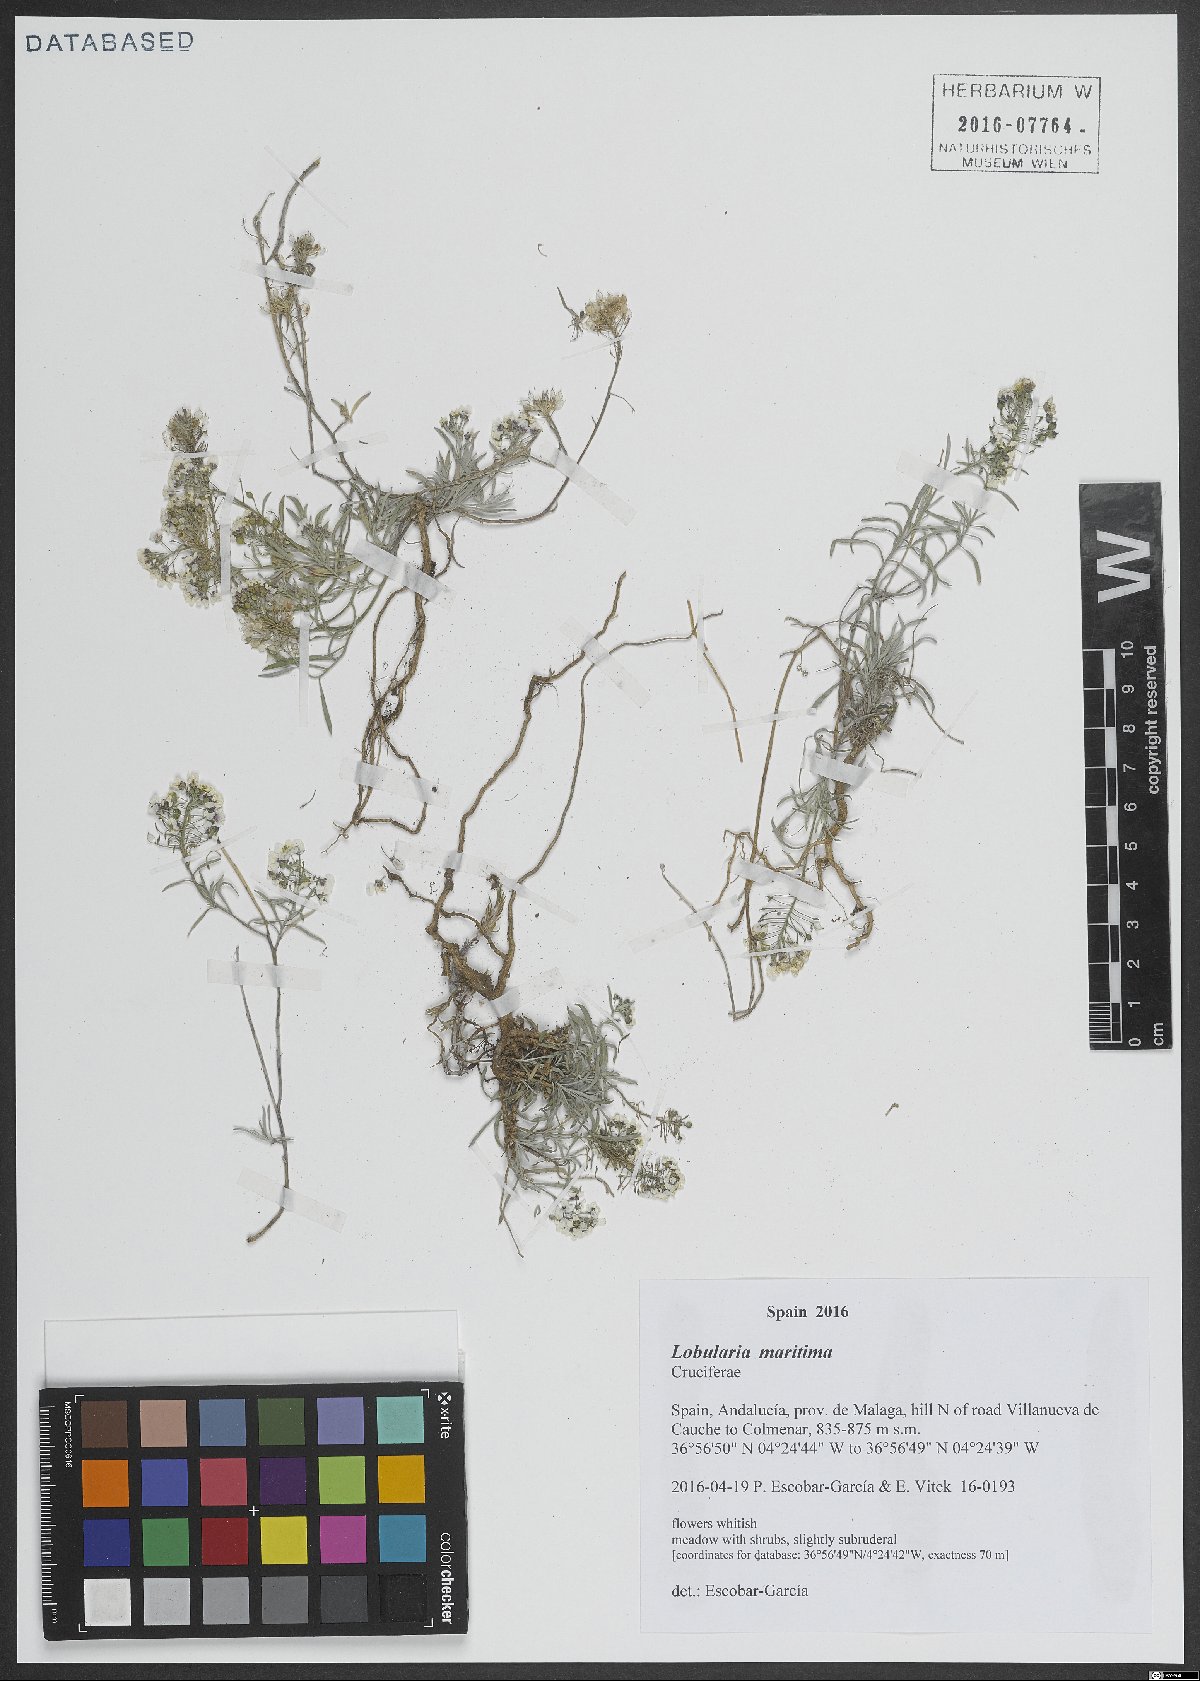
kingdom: Plantae
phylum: Tracheophyta
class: Magnoliopsida
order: Brassicales
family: Brassicaceae
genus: Lobularia
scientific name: Lobularia maritima
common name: Sweet alison
